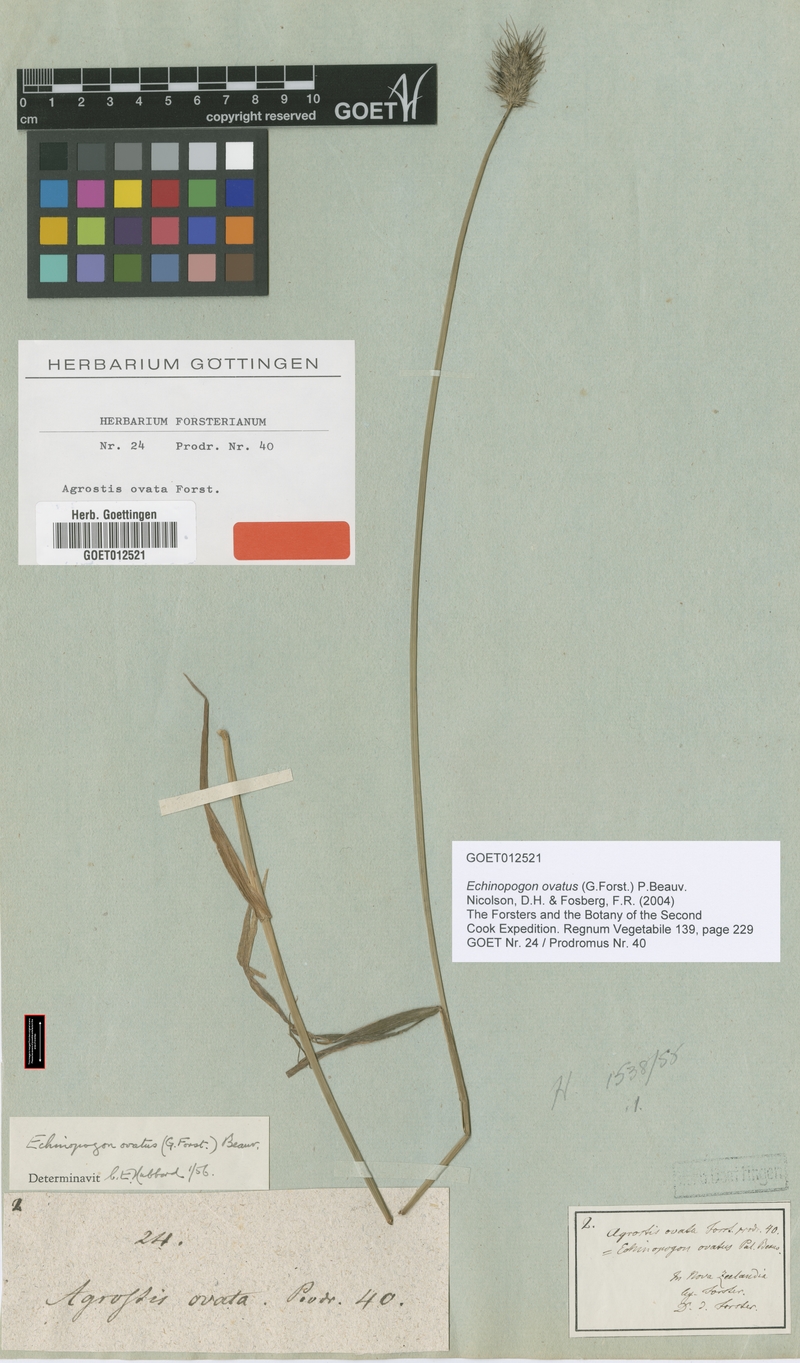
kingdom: Plantae
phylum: Tracheophyta
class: Liliopsida
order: Poales
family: Poaceae
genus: Echinopogon
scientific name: Echinopogon ovatus
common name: Hedgehog-grass
